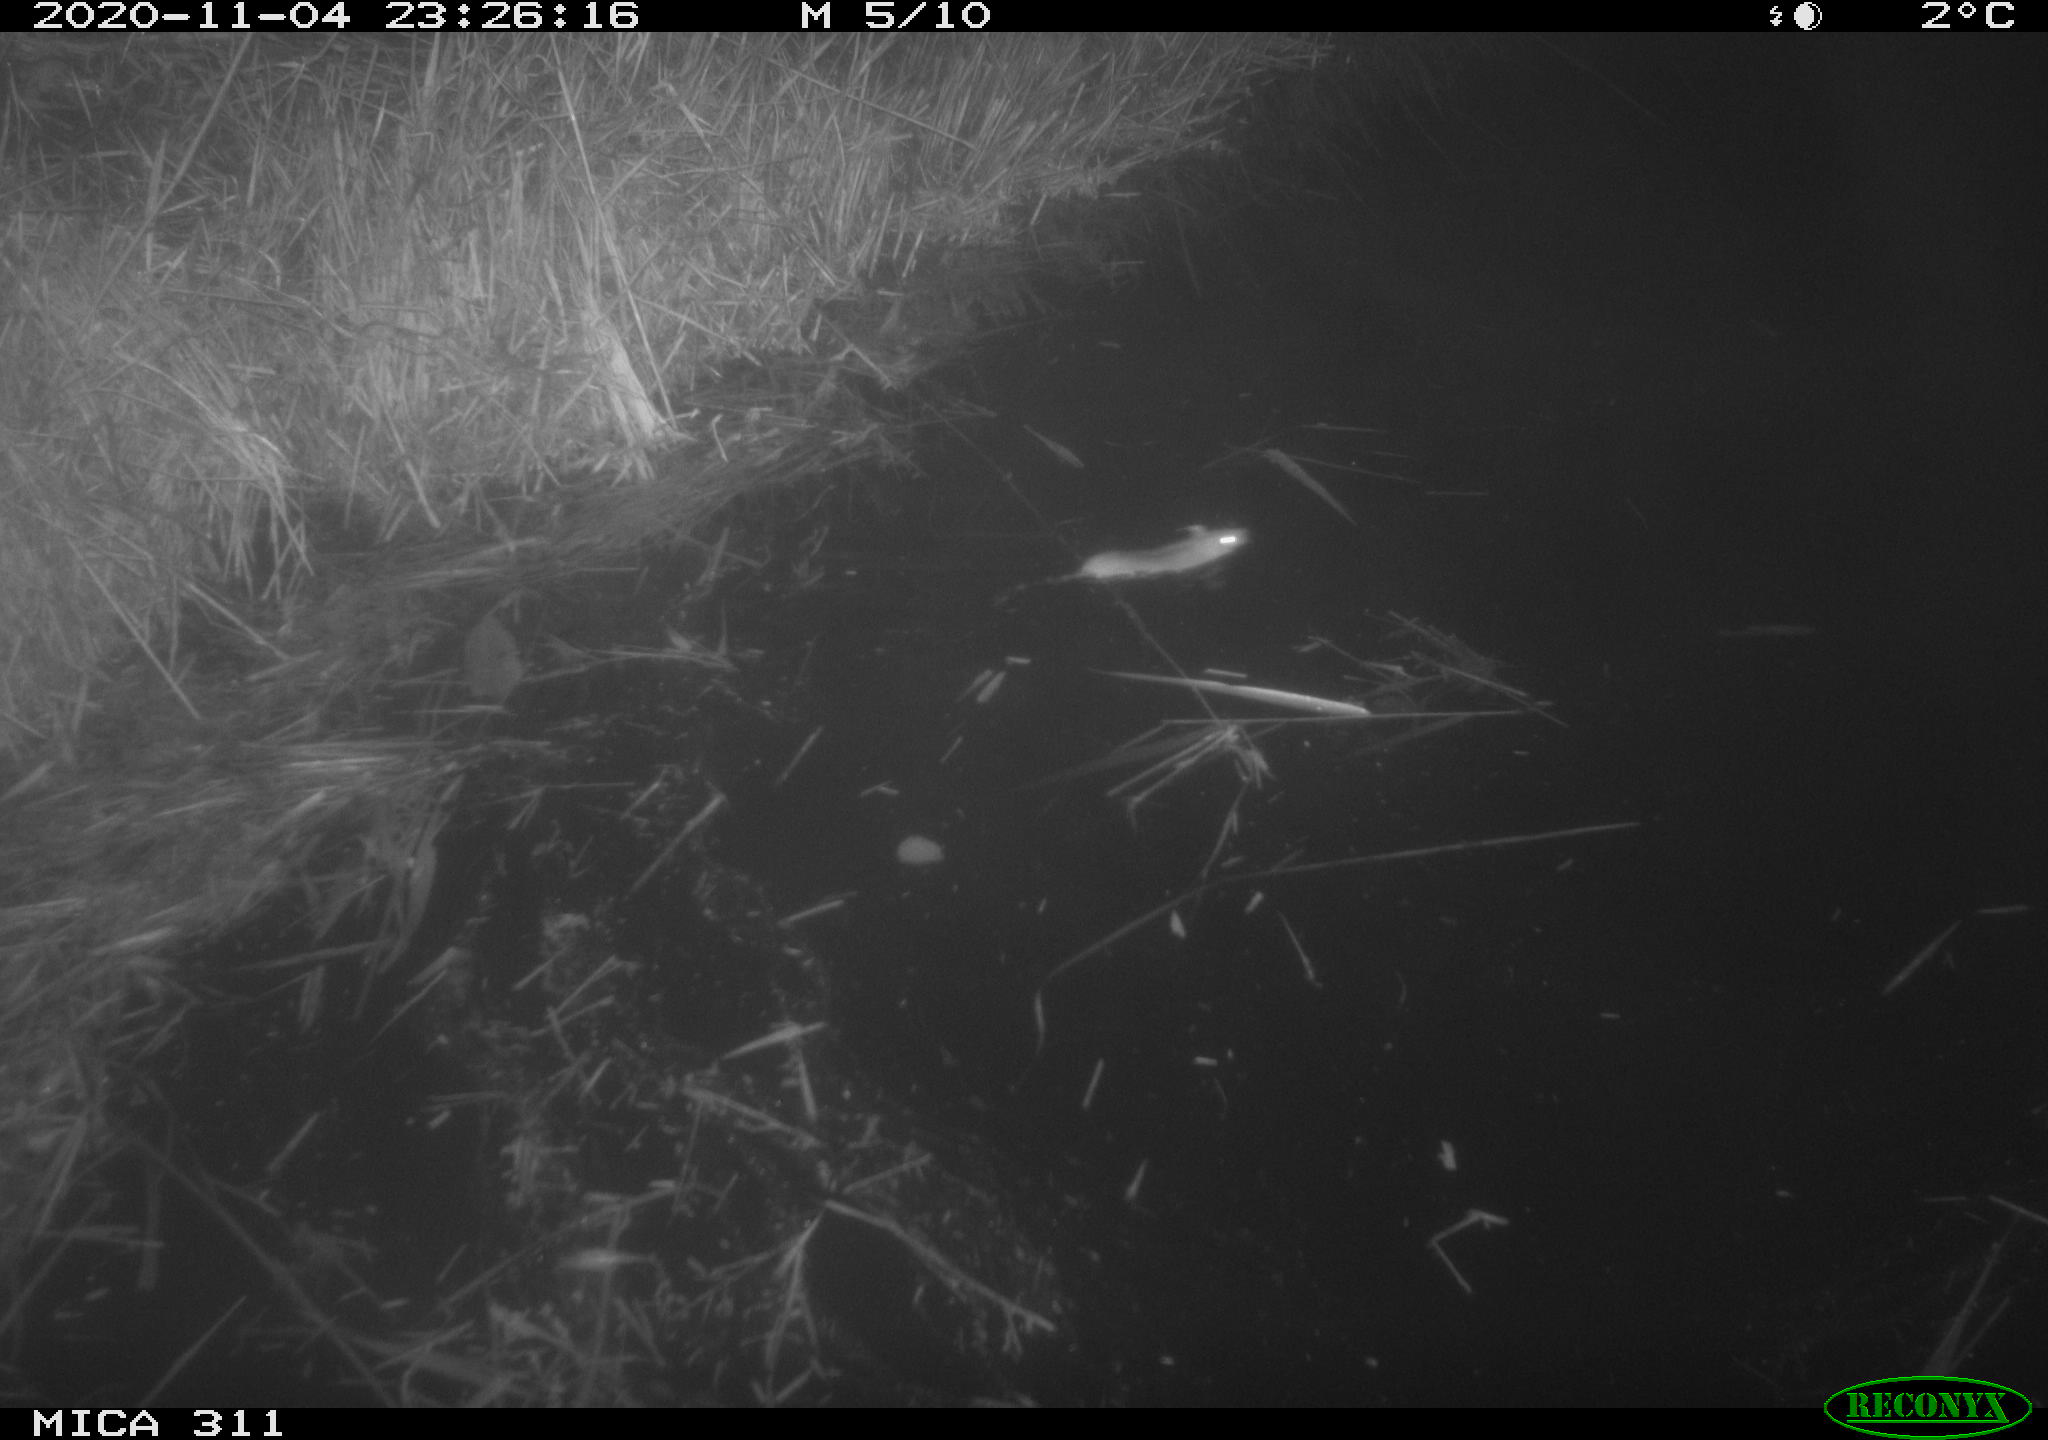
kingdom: Animalia
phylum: Chordata
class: Mammalia
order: Rodentia
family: Muridae
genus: Rattus
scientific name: Rattus norvegicus
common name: Brown rat
